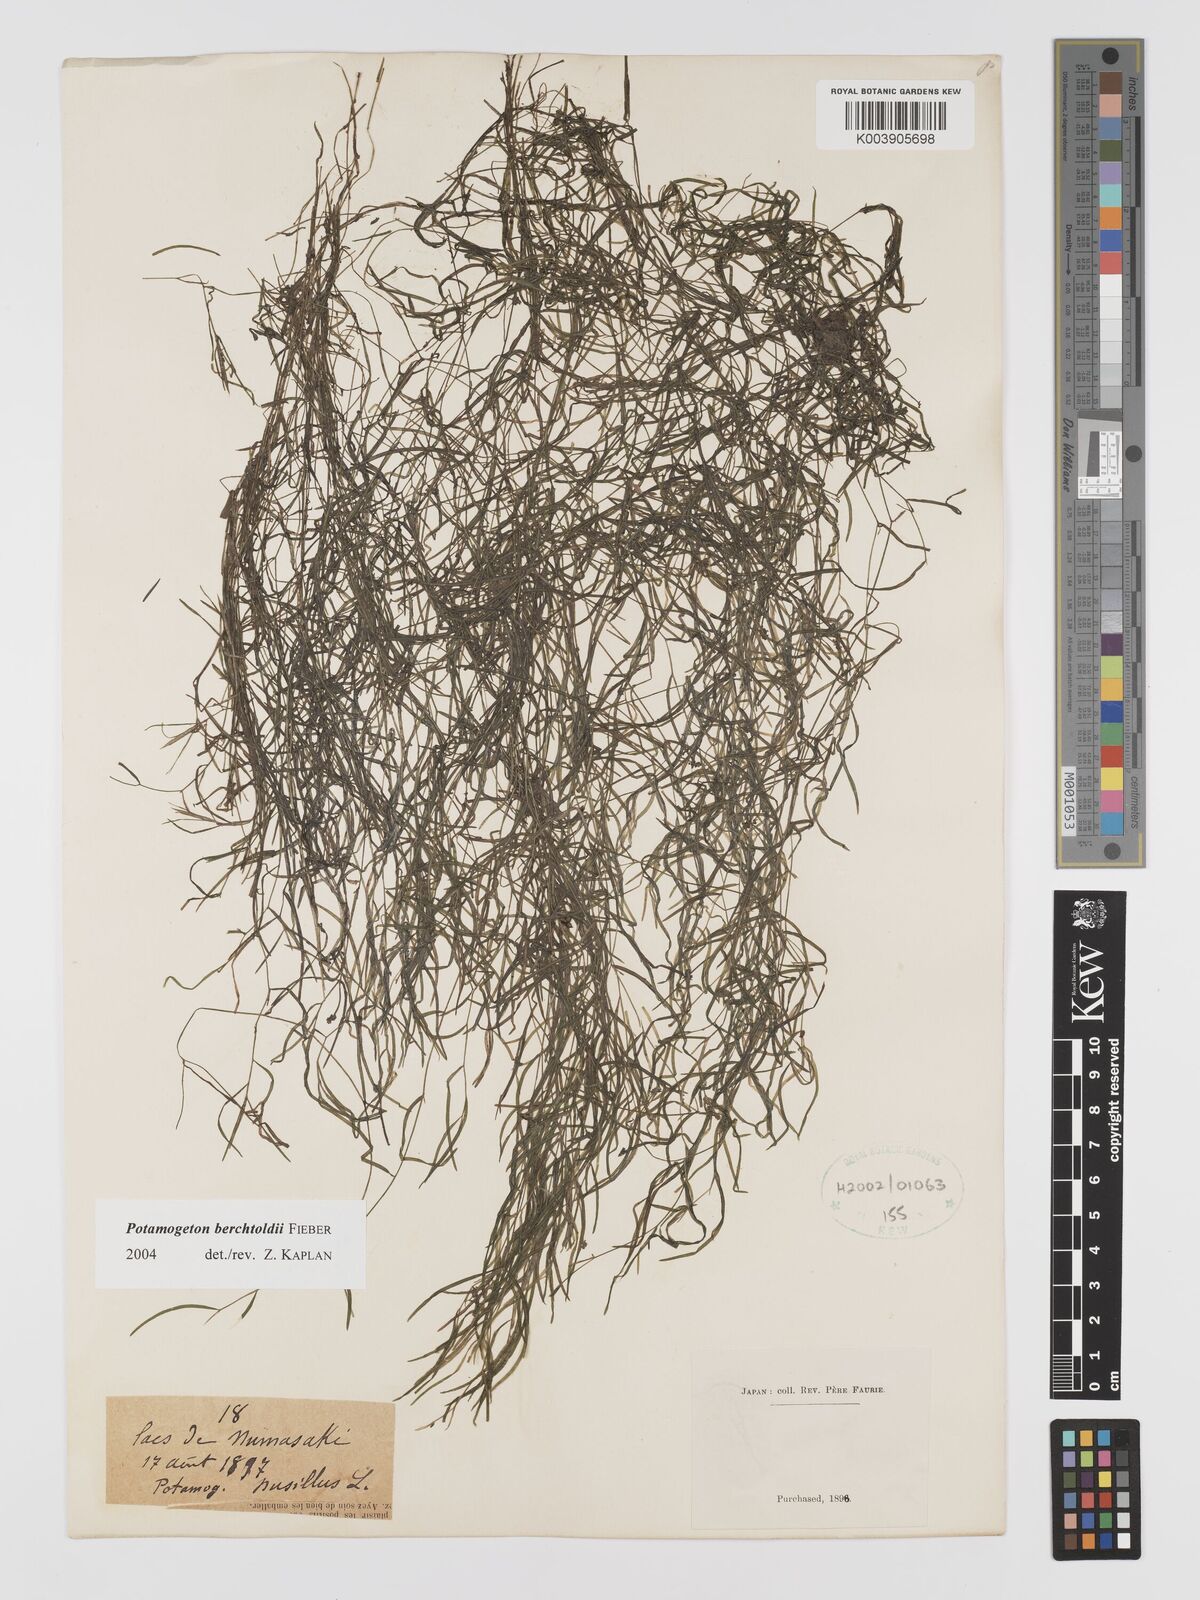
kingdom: Plantae
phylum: Tracheophyta
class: Liliopsida
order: Alismatales
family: Potamogetonaceae
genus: Potamogeton
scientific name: Potamogeton berchtoldii
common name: Small pondweed
